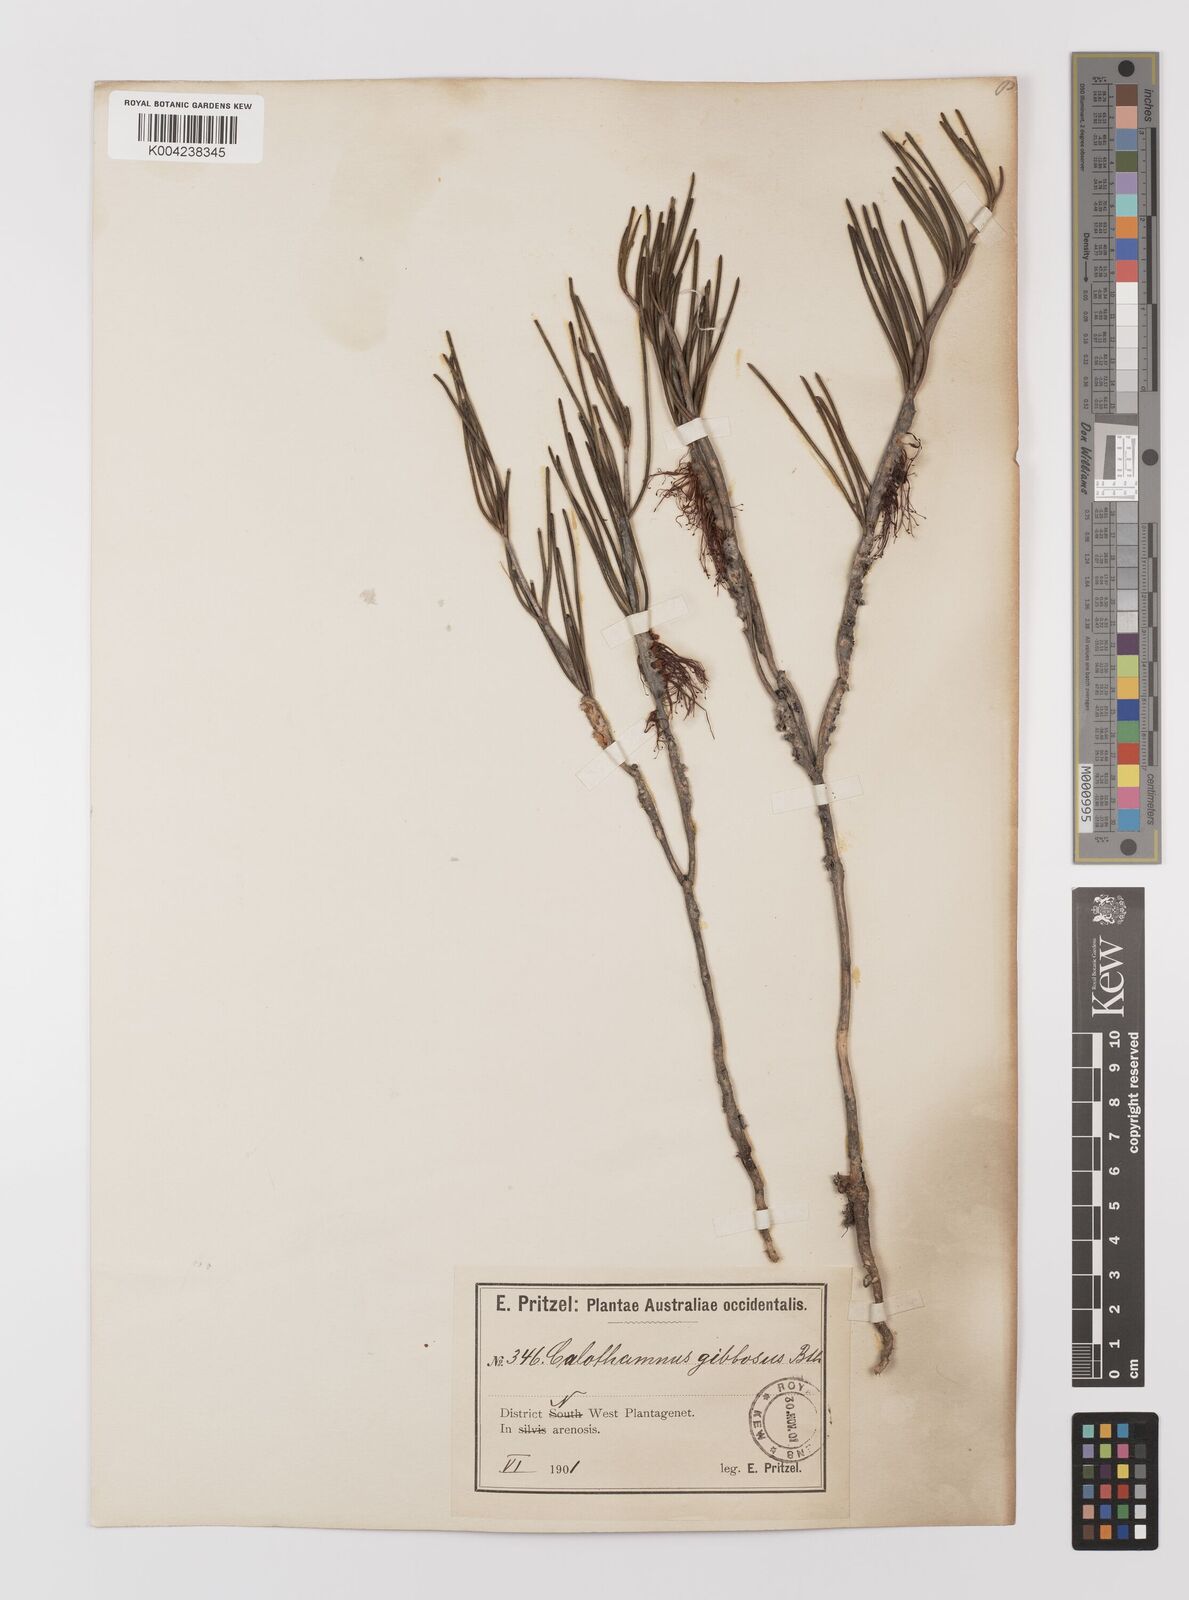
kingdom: Plantae
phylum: Tracheophyta
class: Magnoliopsida
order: Myrtales
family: Myrtaceae
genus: Melaleuca
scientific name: Melaleuca protumida
